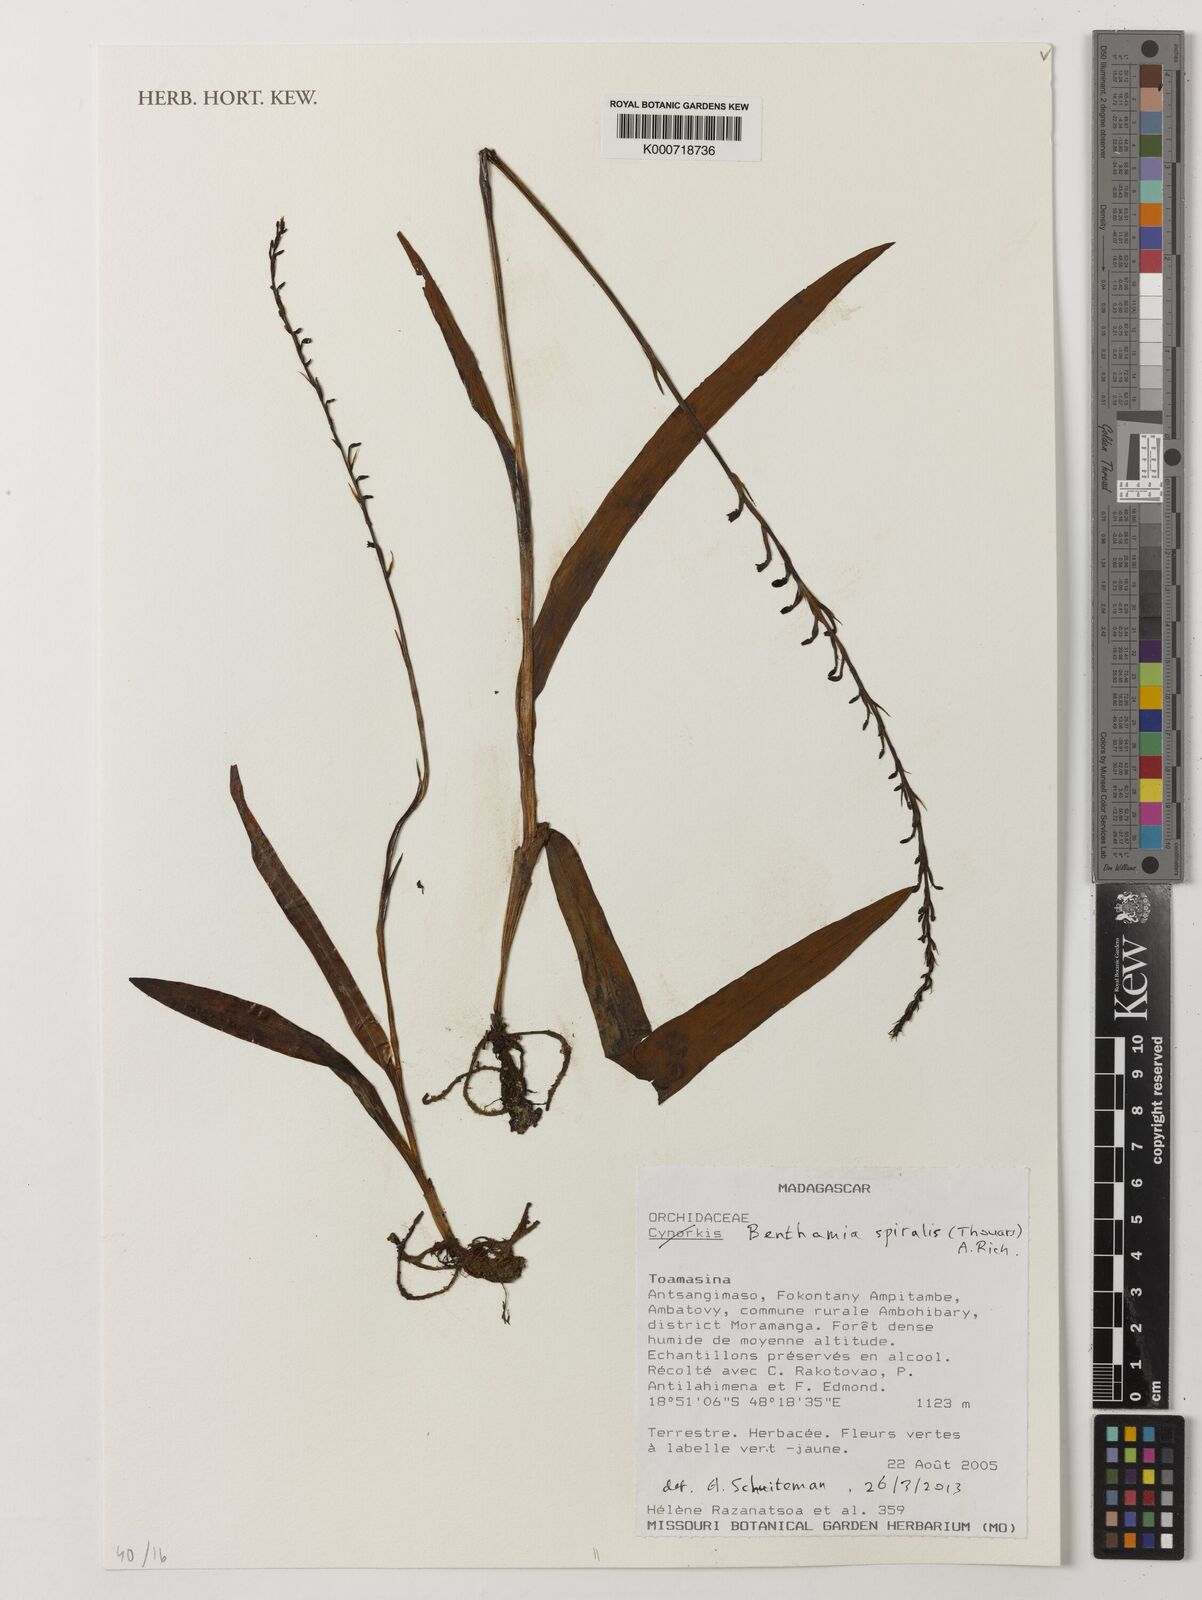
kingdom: Plantae
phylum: Tracheophyta
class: Liliopsida
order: Asparagales
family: Orchidaceae
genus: Benthamia
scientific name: Benthamia africana
